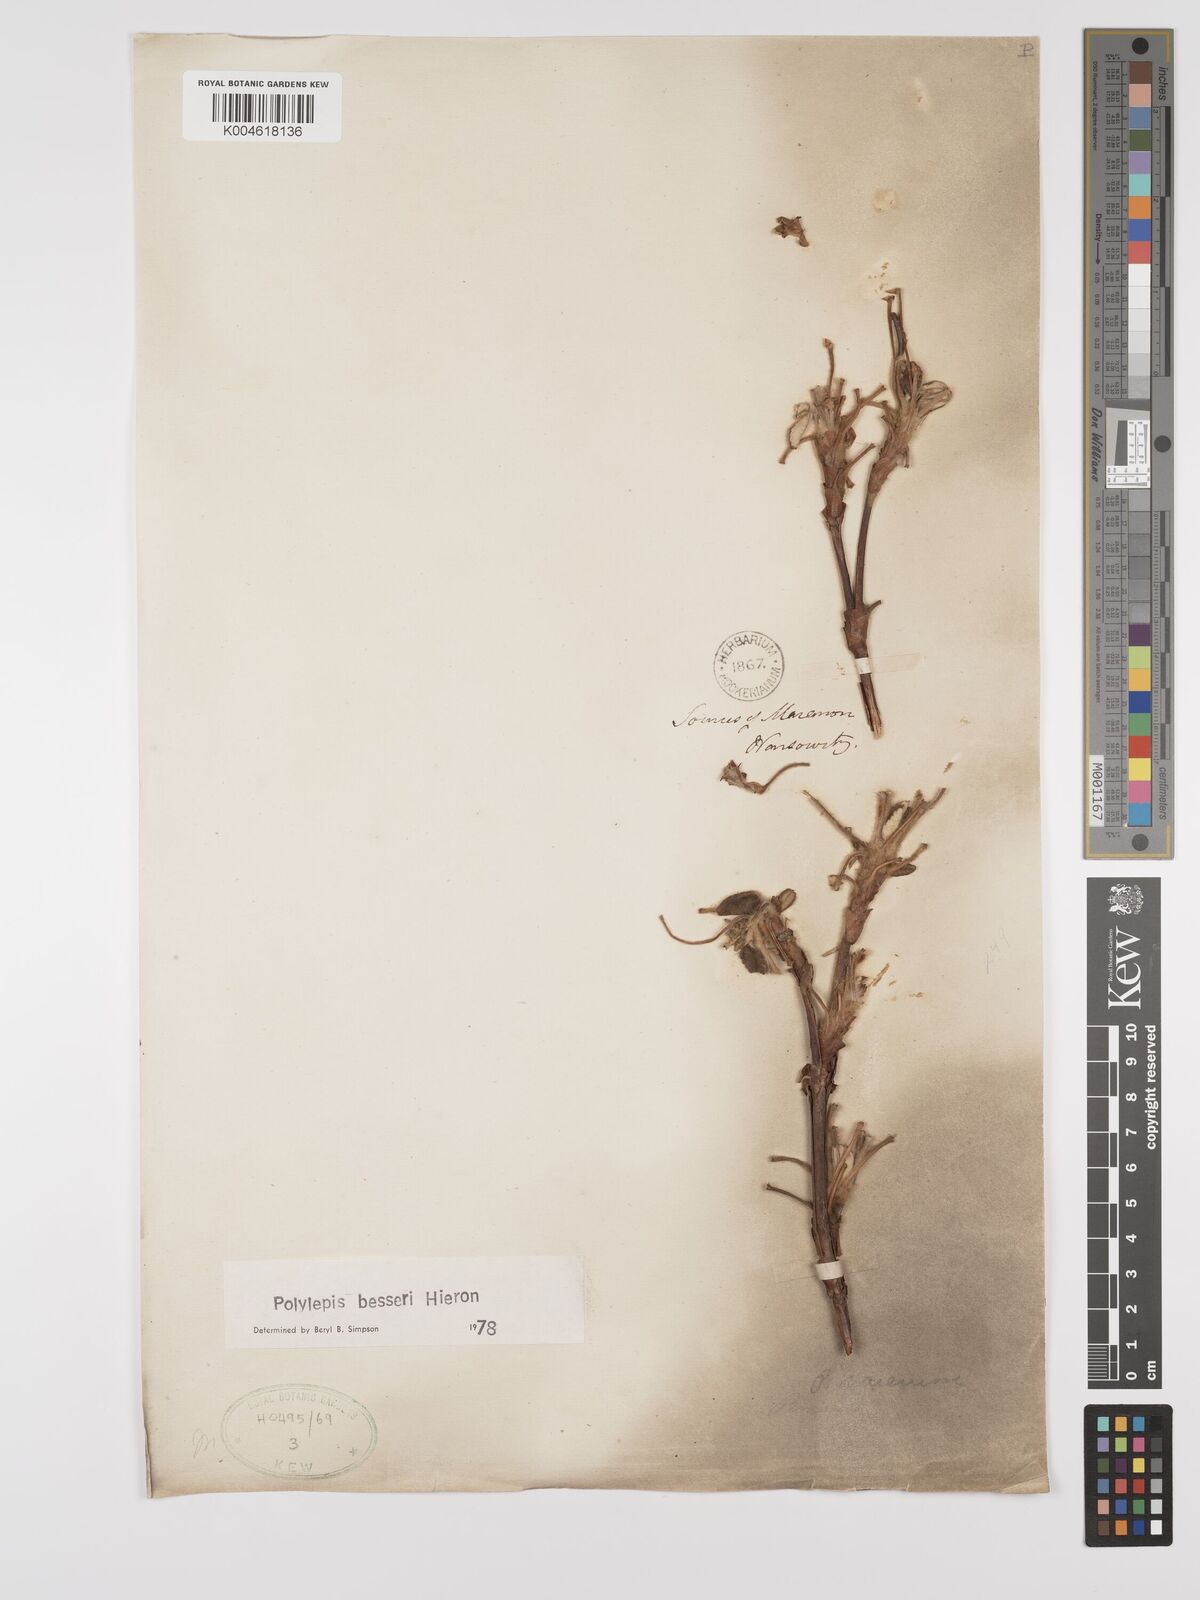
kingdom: Plantae
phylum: Tracheophyta
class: Magnoliopsida
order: Rosales
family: Rosaceae
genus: Polylepis
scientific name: Polylepis
